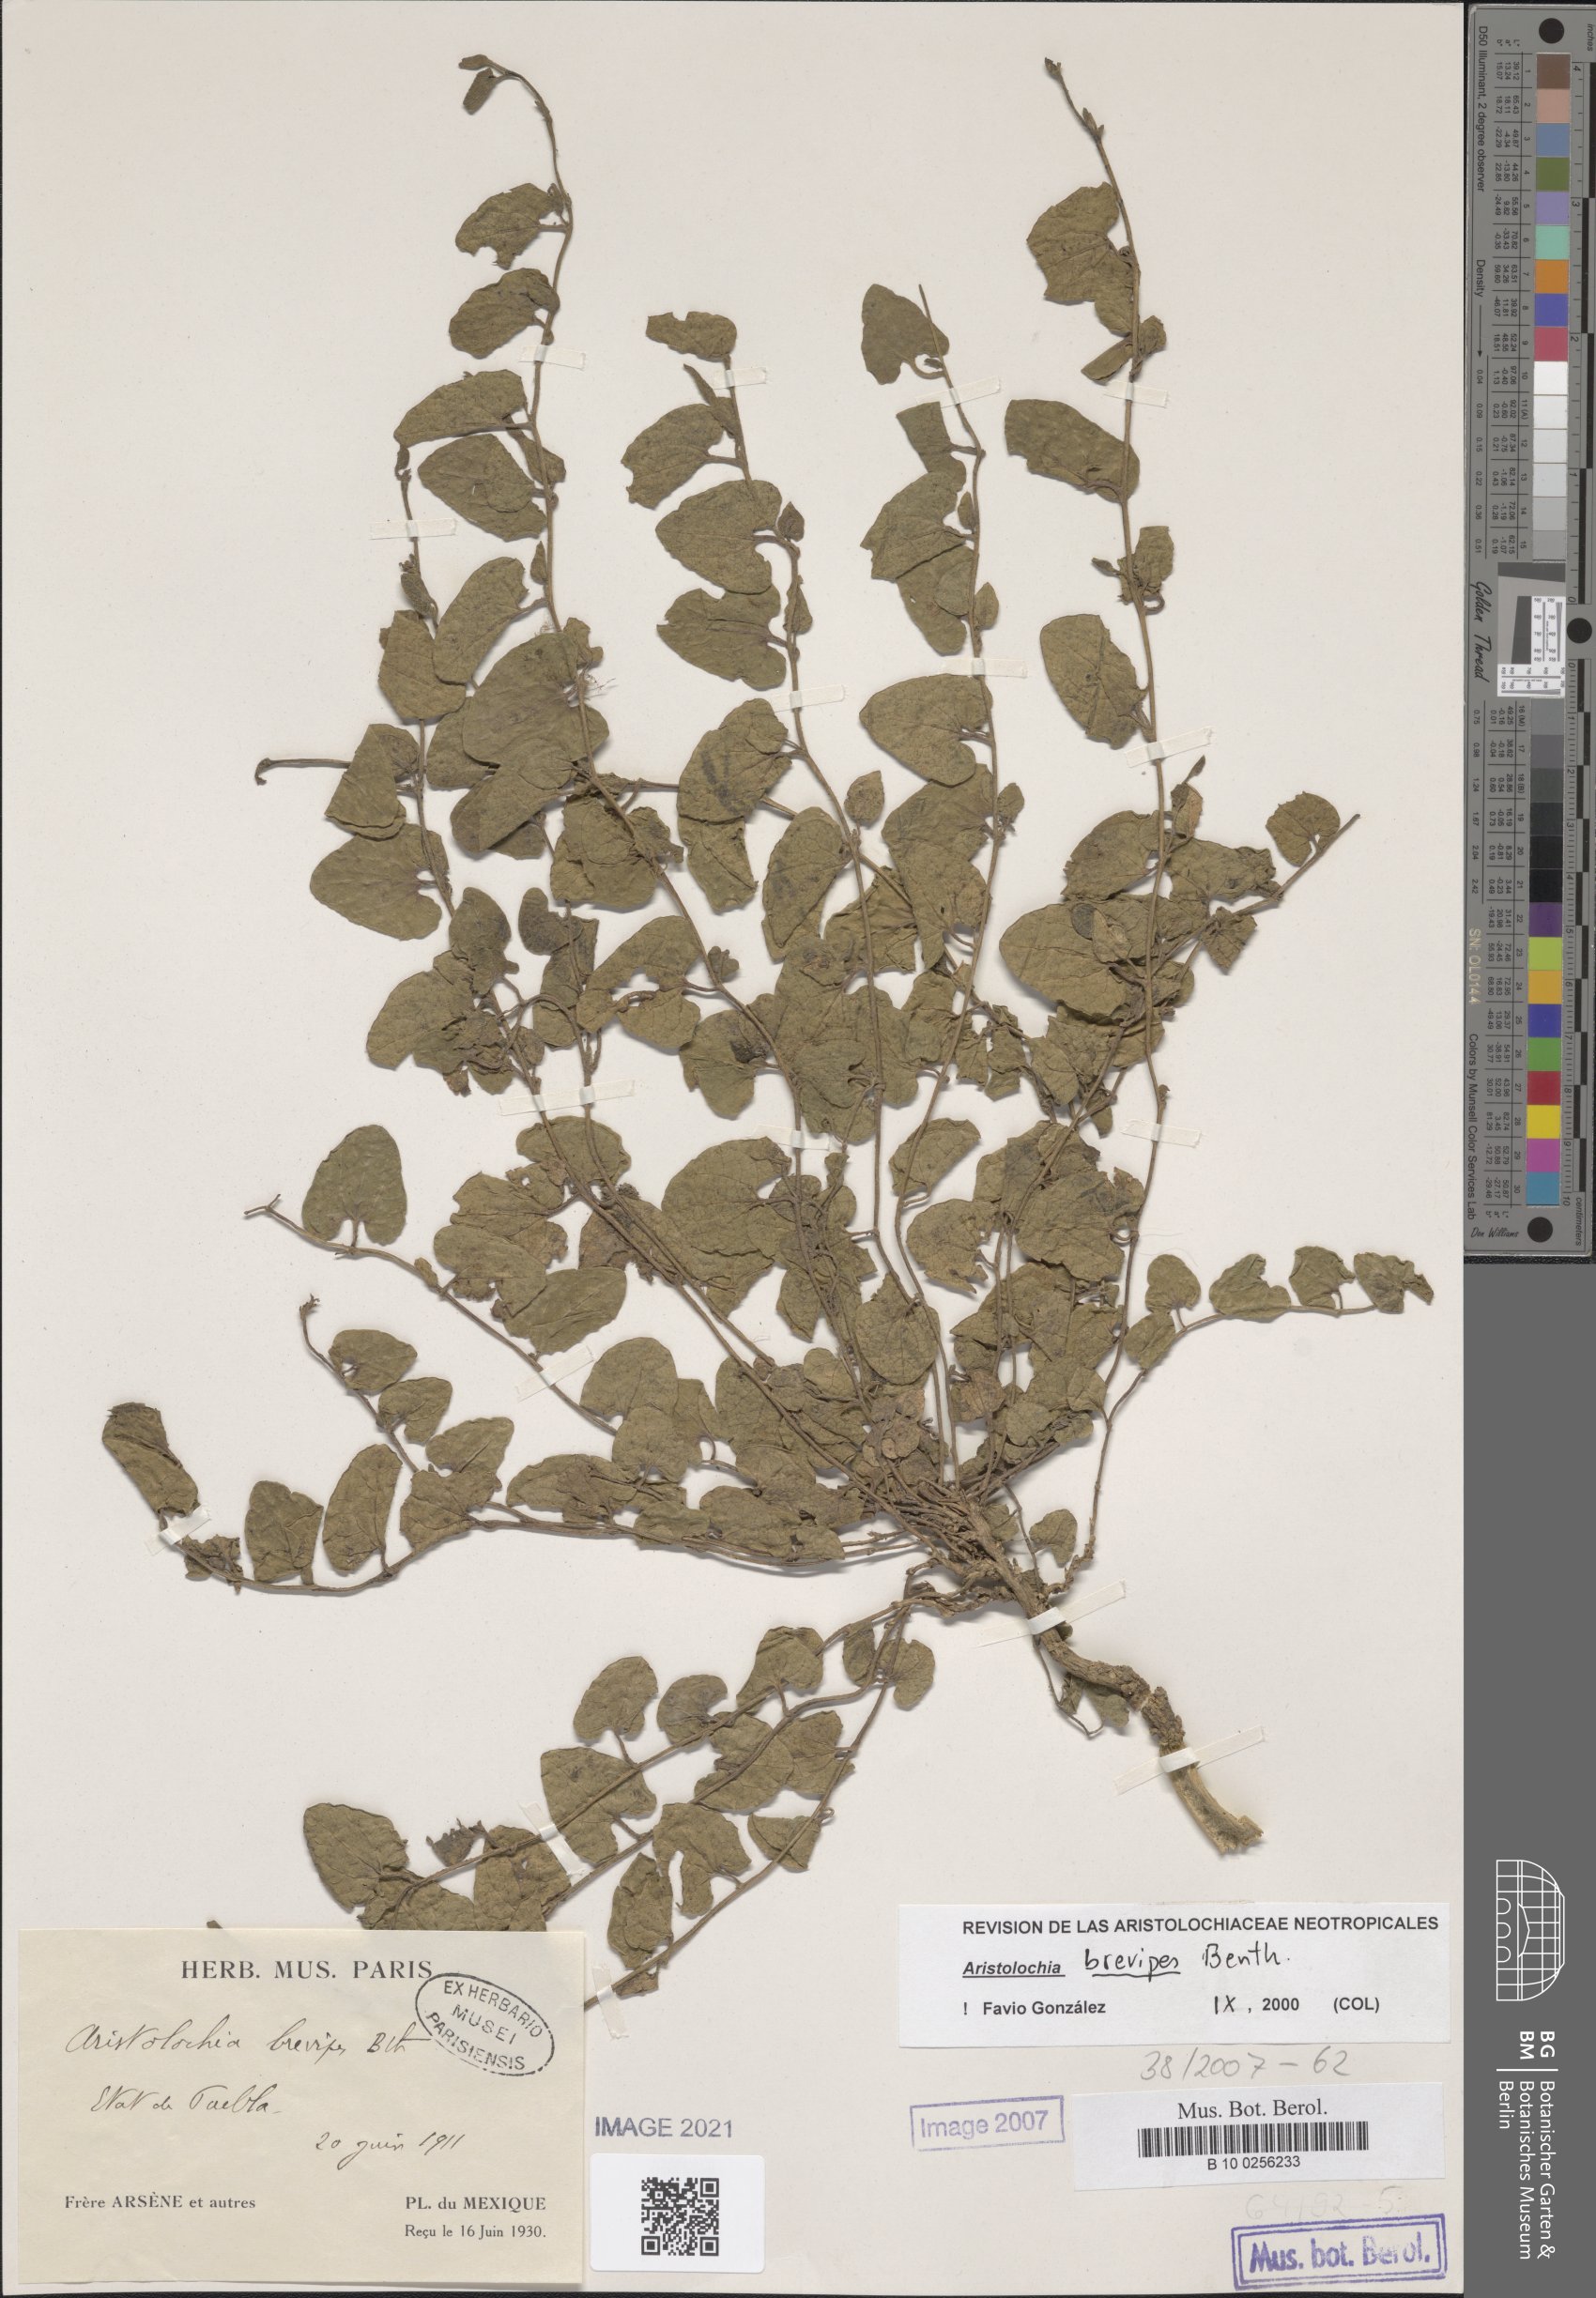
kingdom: Plantae
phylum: Tracheophyta
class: Magnoliopsida
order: Piperales
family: Aristolochiaceae
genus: Aristolochia
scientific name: Aristolochia brevipes
